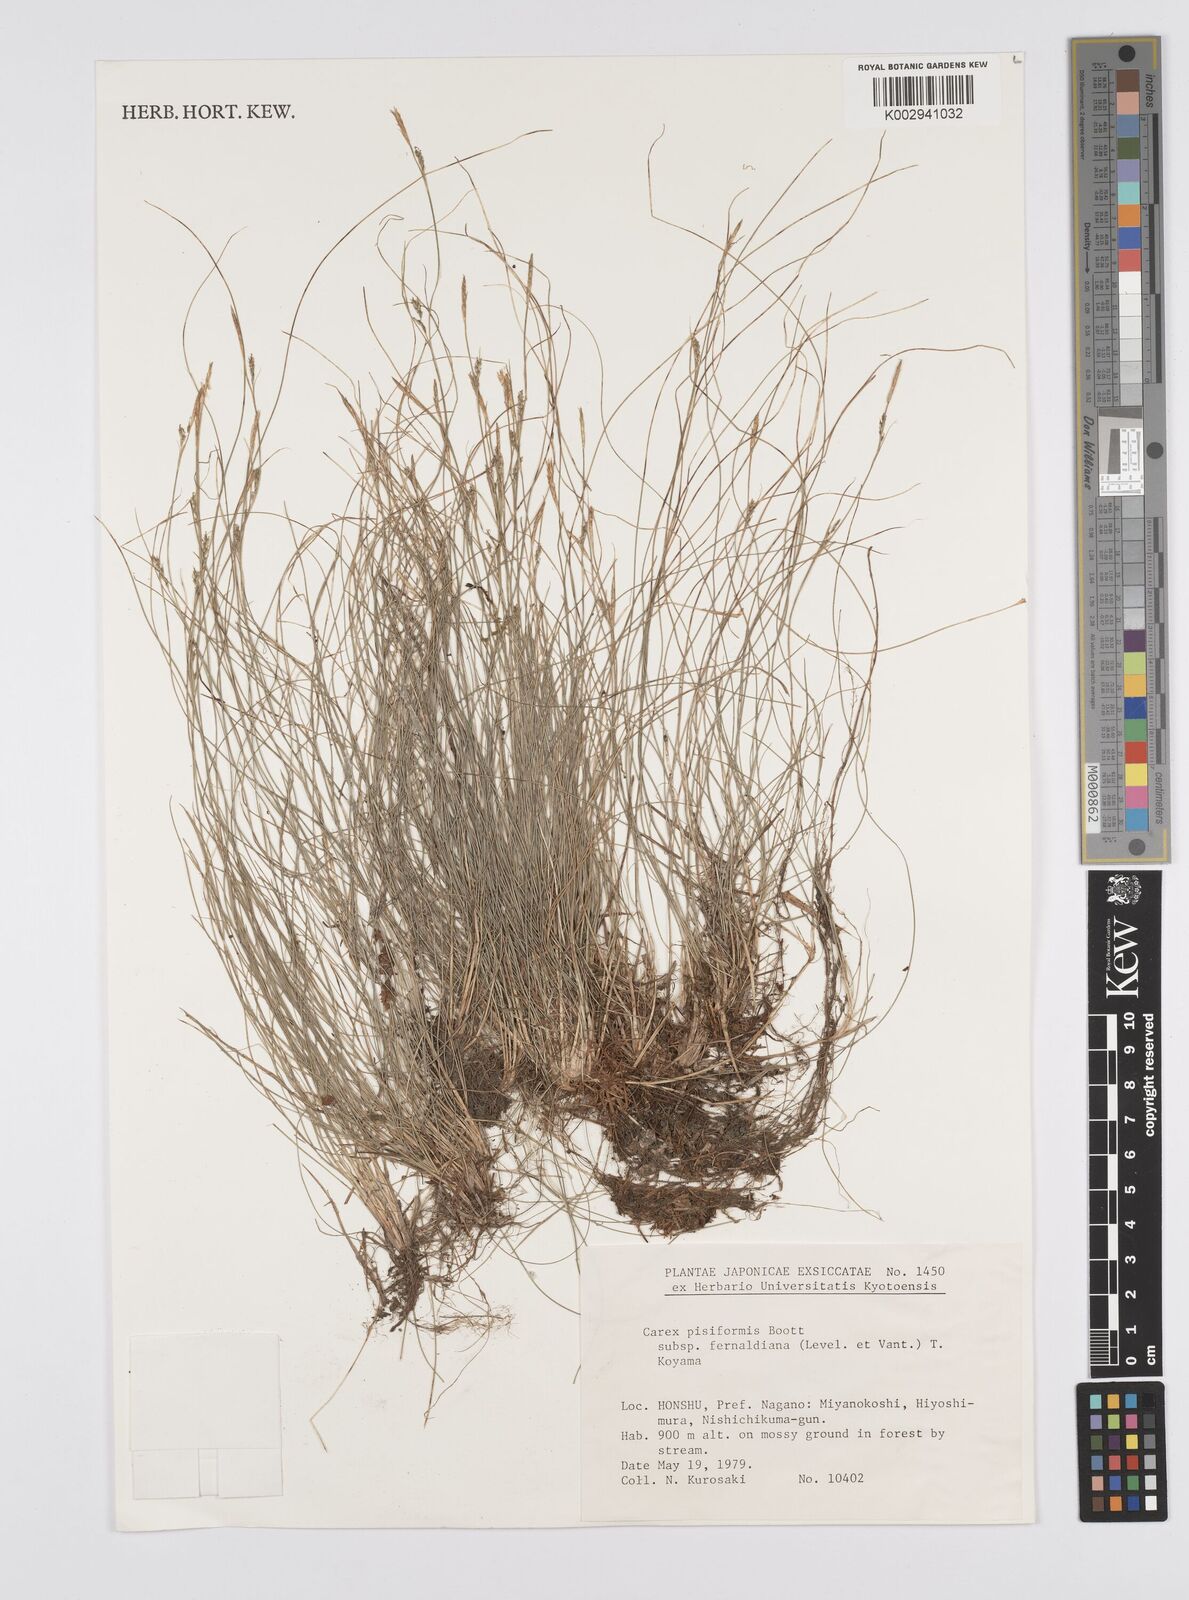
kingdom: Plantae
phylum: Tracheophyta
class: Liliopsida
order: Poales
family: Cyperaceae
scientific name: Cyperaceae
